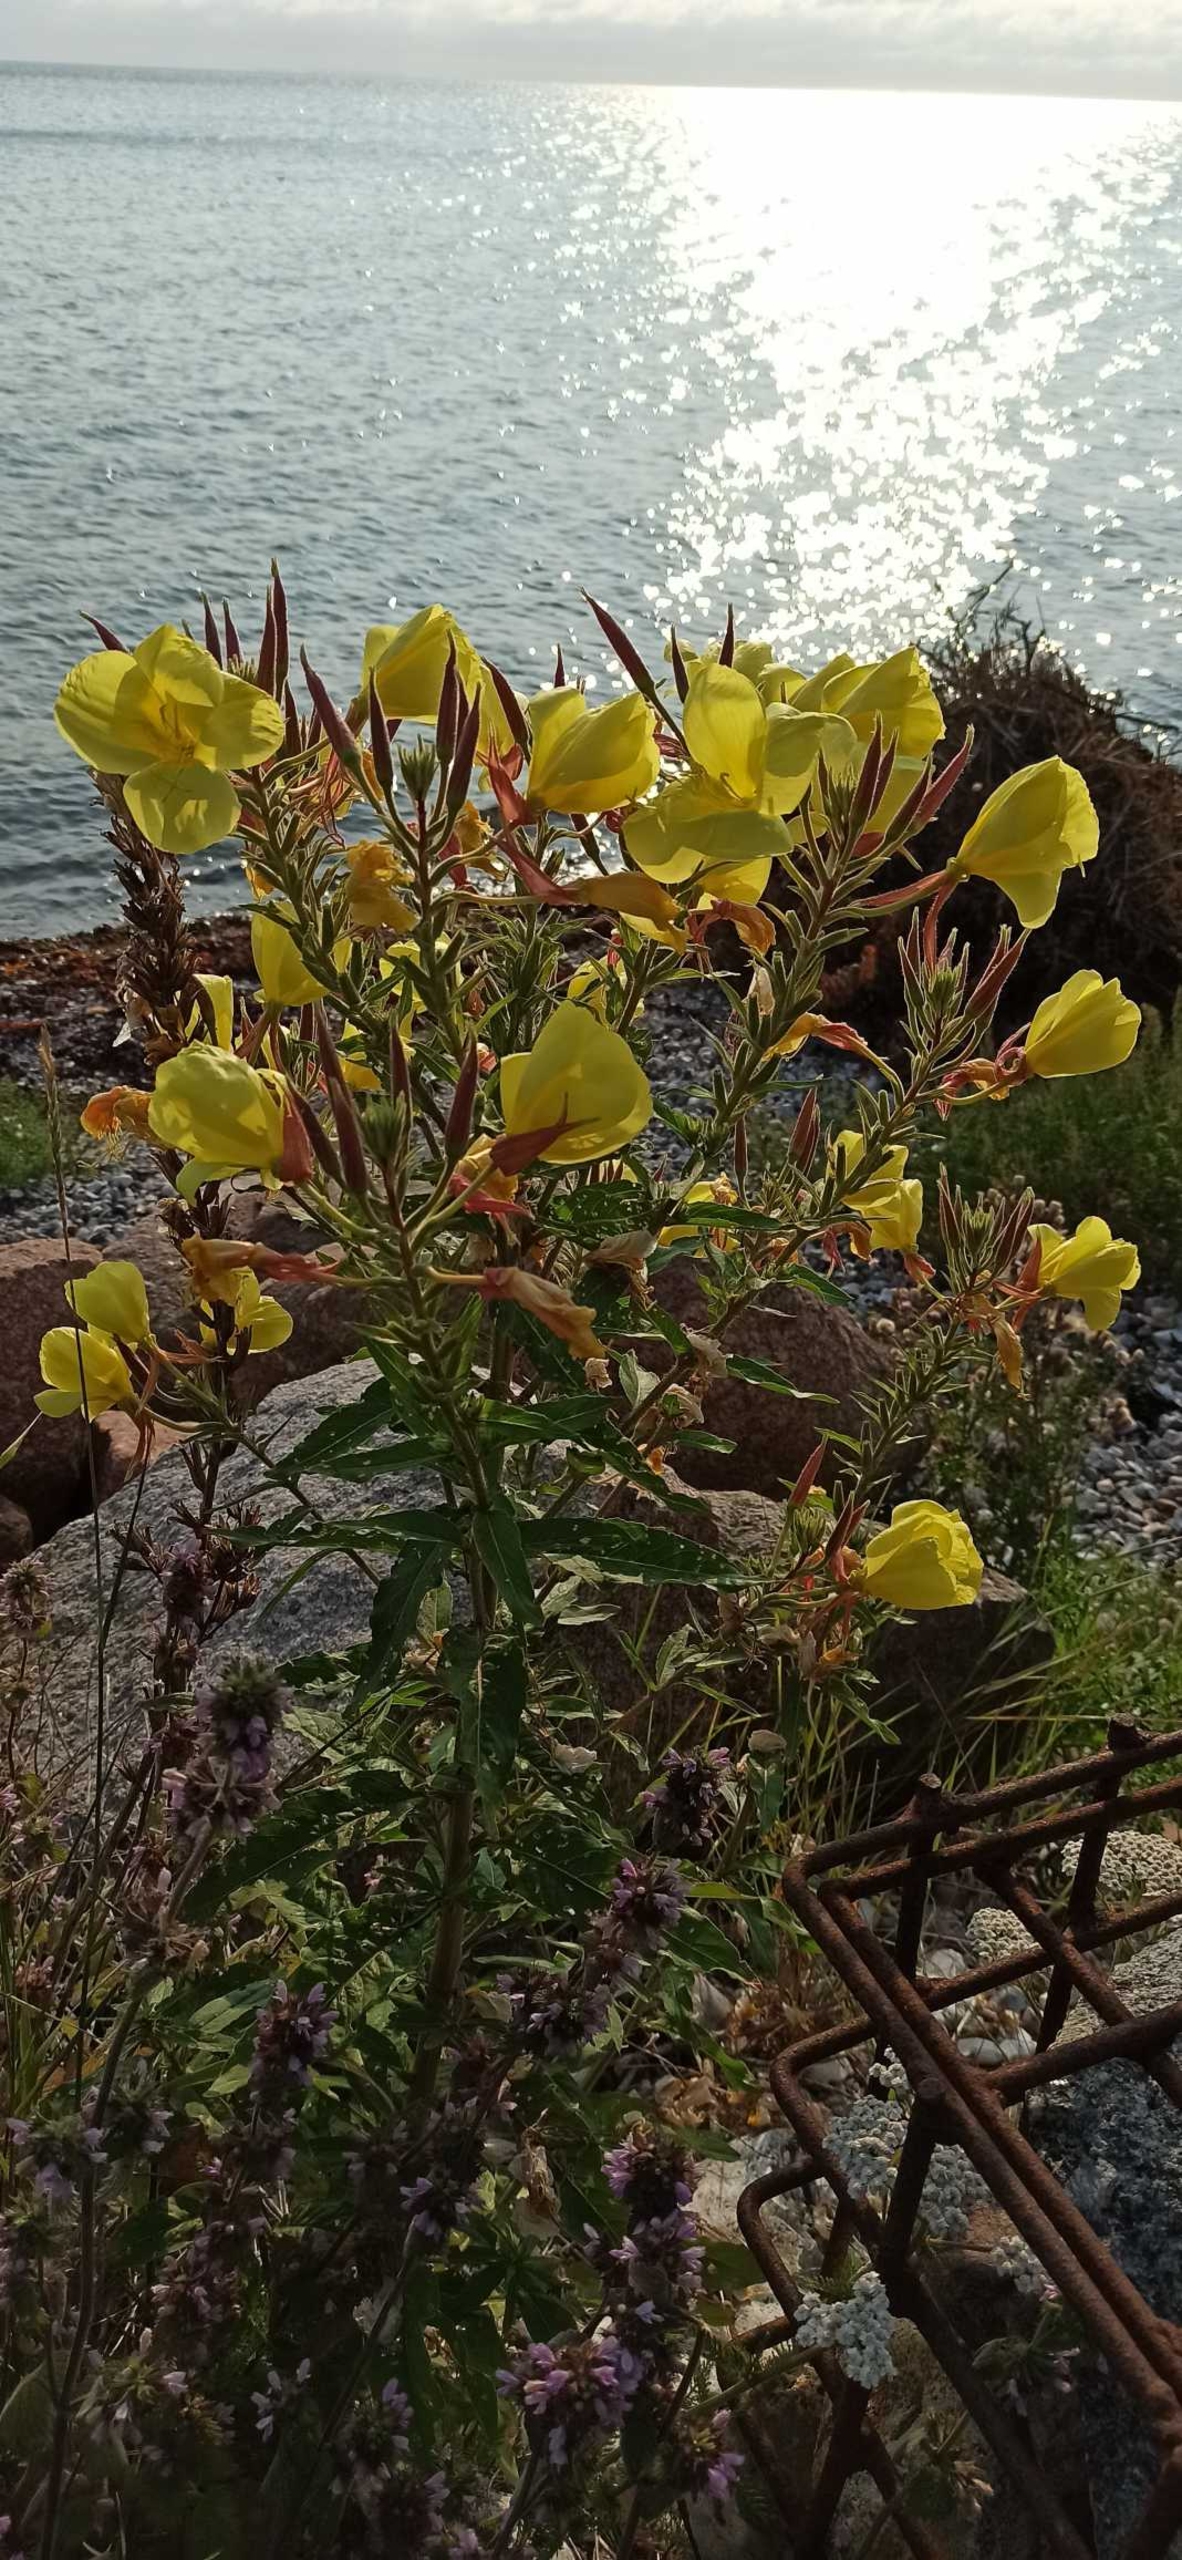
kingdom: Plantae
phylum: Tracheophyta
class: Magnoliopsida
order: Myrtales
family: Onagraceae
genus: Oenothera
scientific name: Oenothera glazioviana
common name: Kæmpe-natlys
